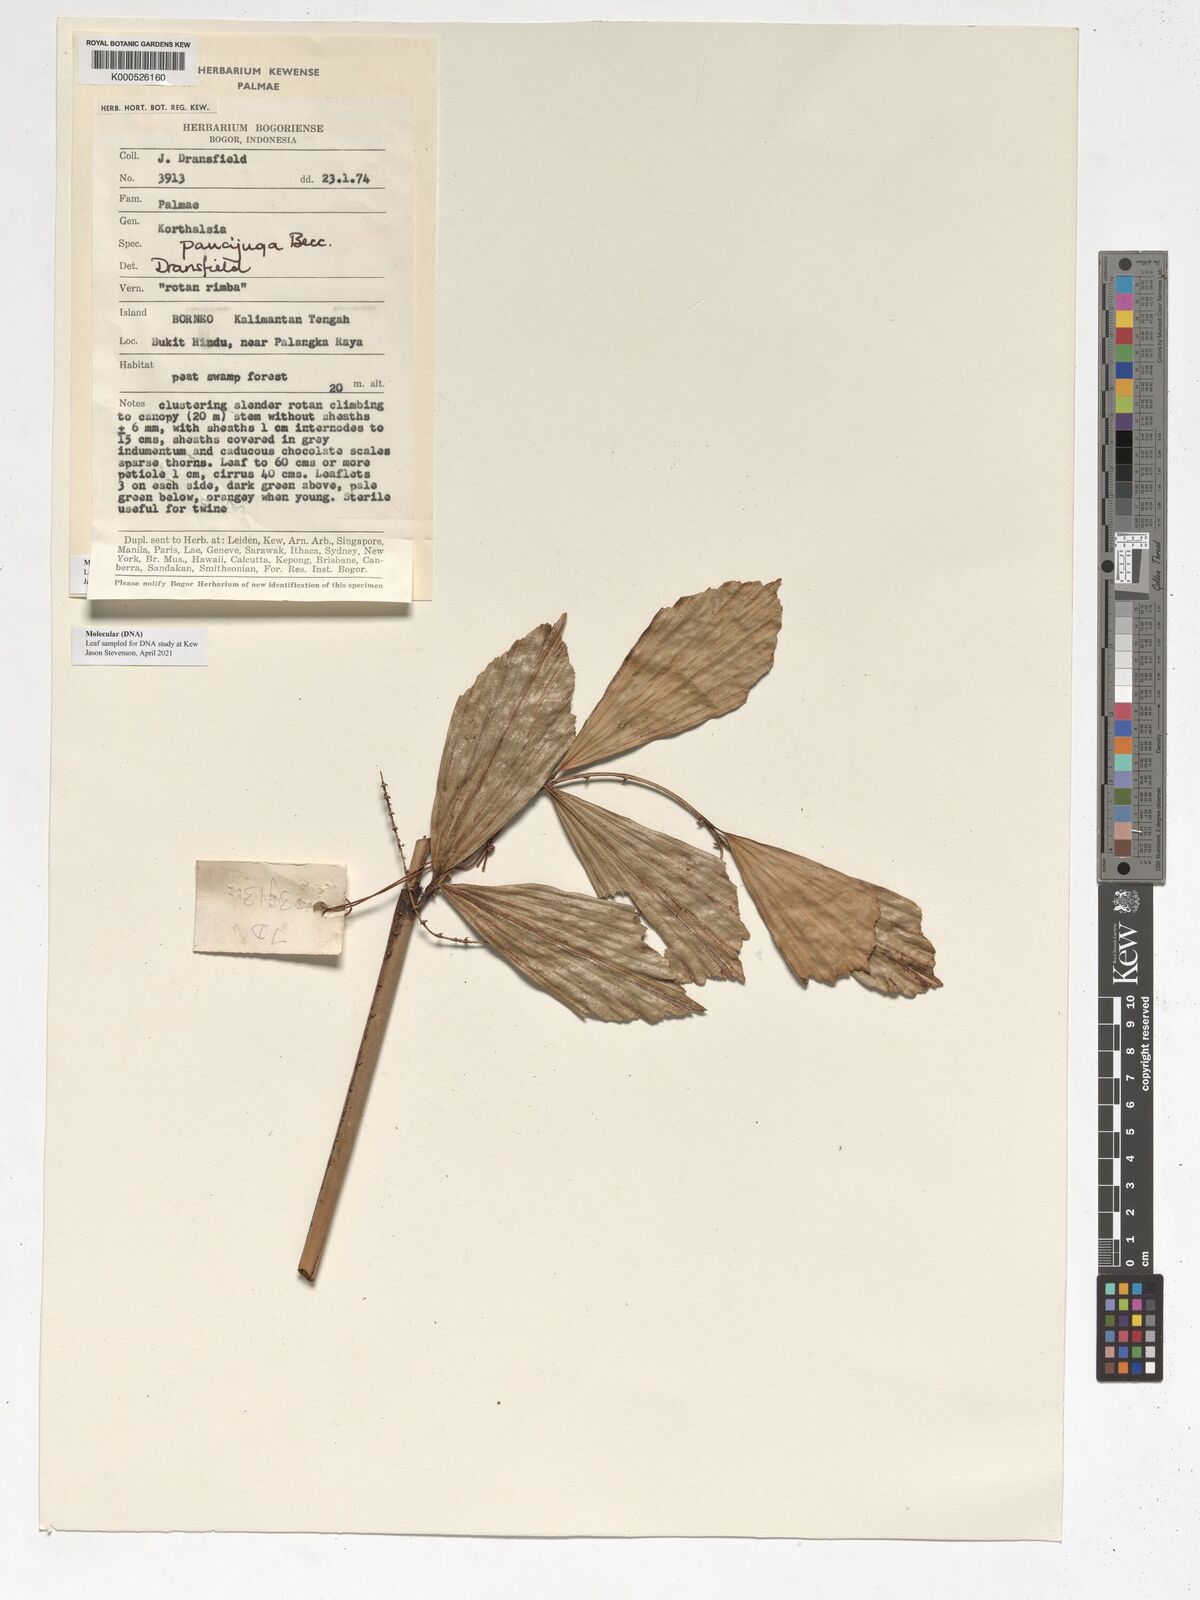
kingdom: Plantae
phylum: Tracheophyta
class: Liliopsida
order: Arecales
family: Arecaceae
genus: Korthalsia
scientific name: Korthalsia paucijuga
